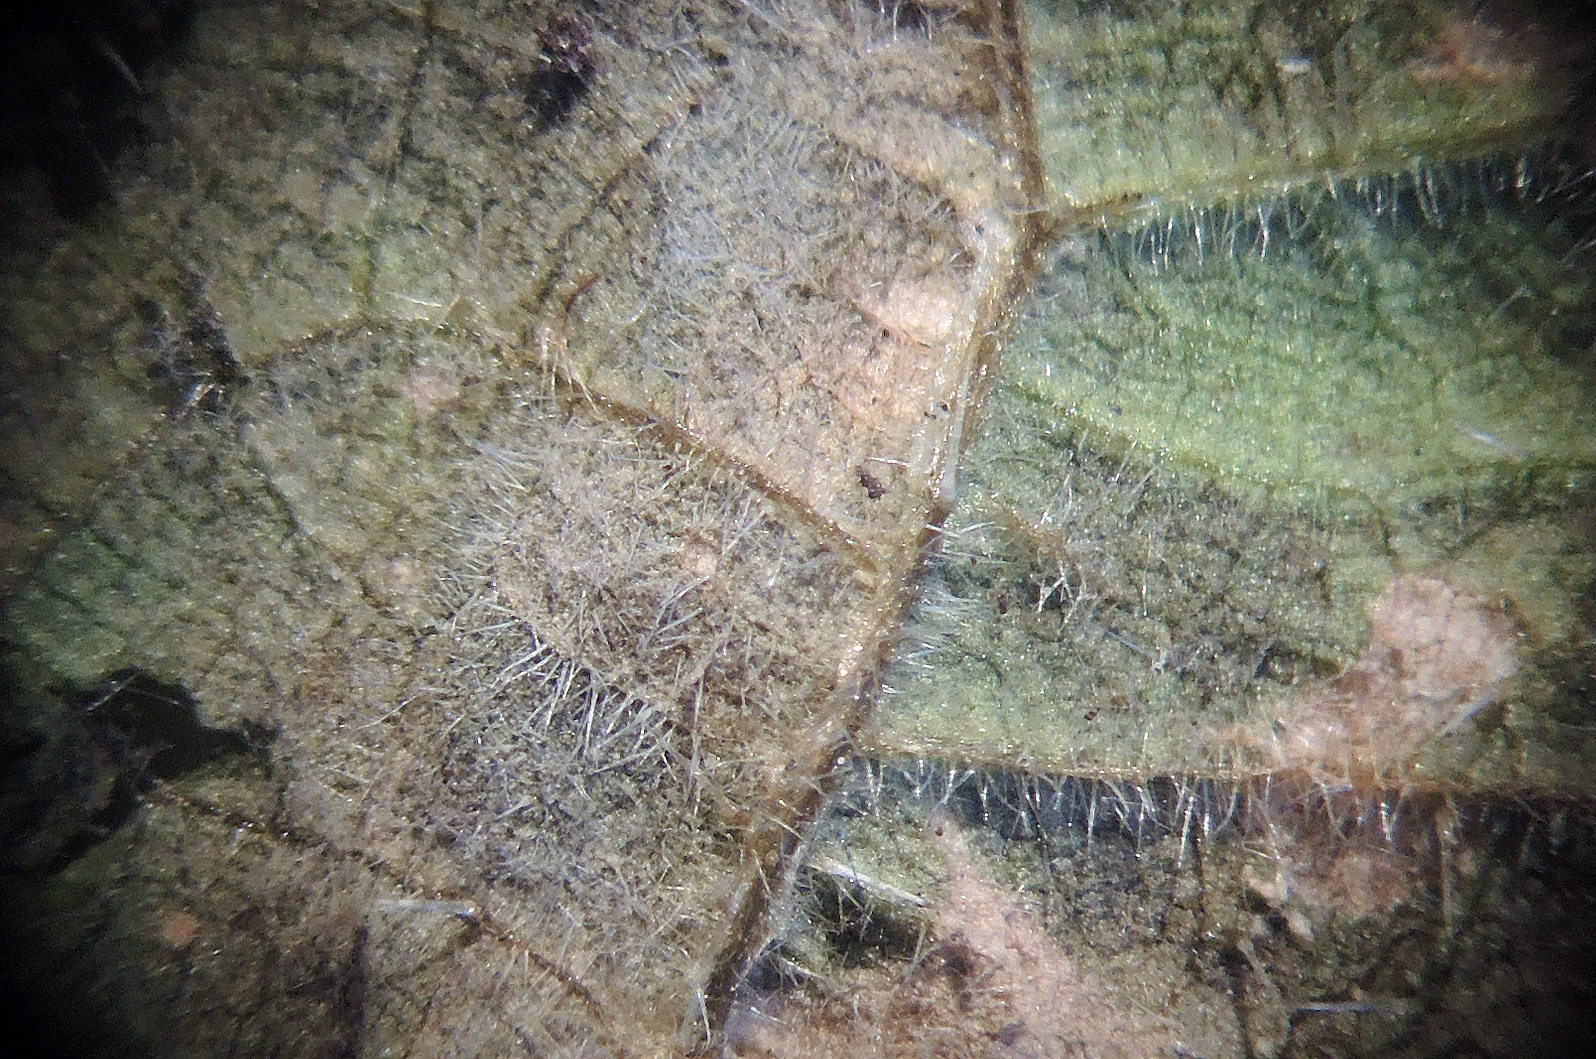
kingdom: Chromista
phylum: Oomycota
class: Peronosporea
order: Peronosporales
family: Peronosporaceae
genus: Pseudoperonospora
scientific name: Pseudoperonospora urticae
